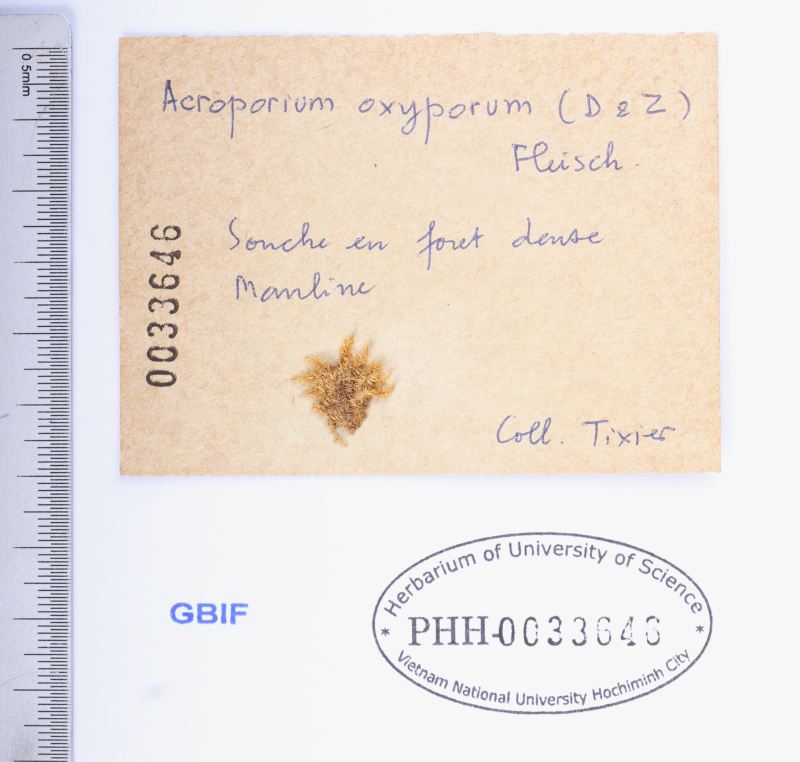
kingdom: Plantae
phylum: Bryophyta
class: Bryopsida
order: Hypnales
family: Sematophyllaceae
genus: Acroporium
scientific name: Acroporium lamprophyllum
